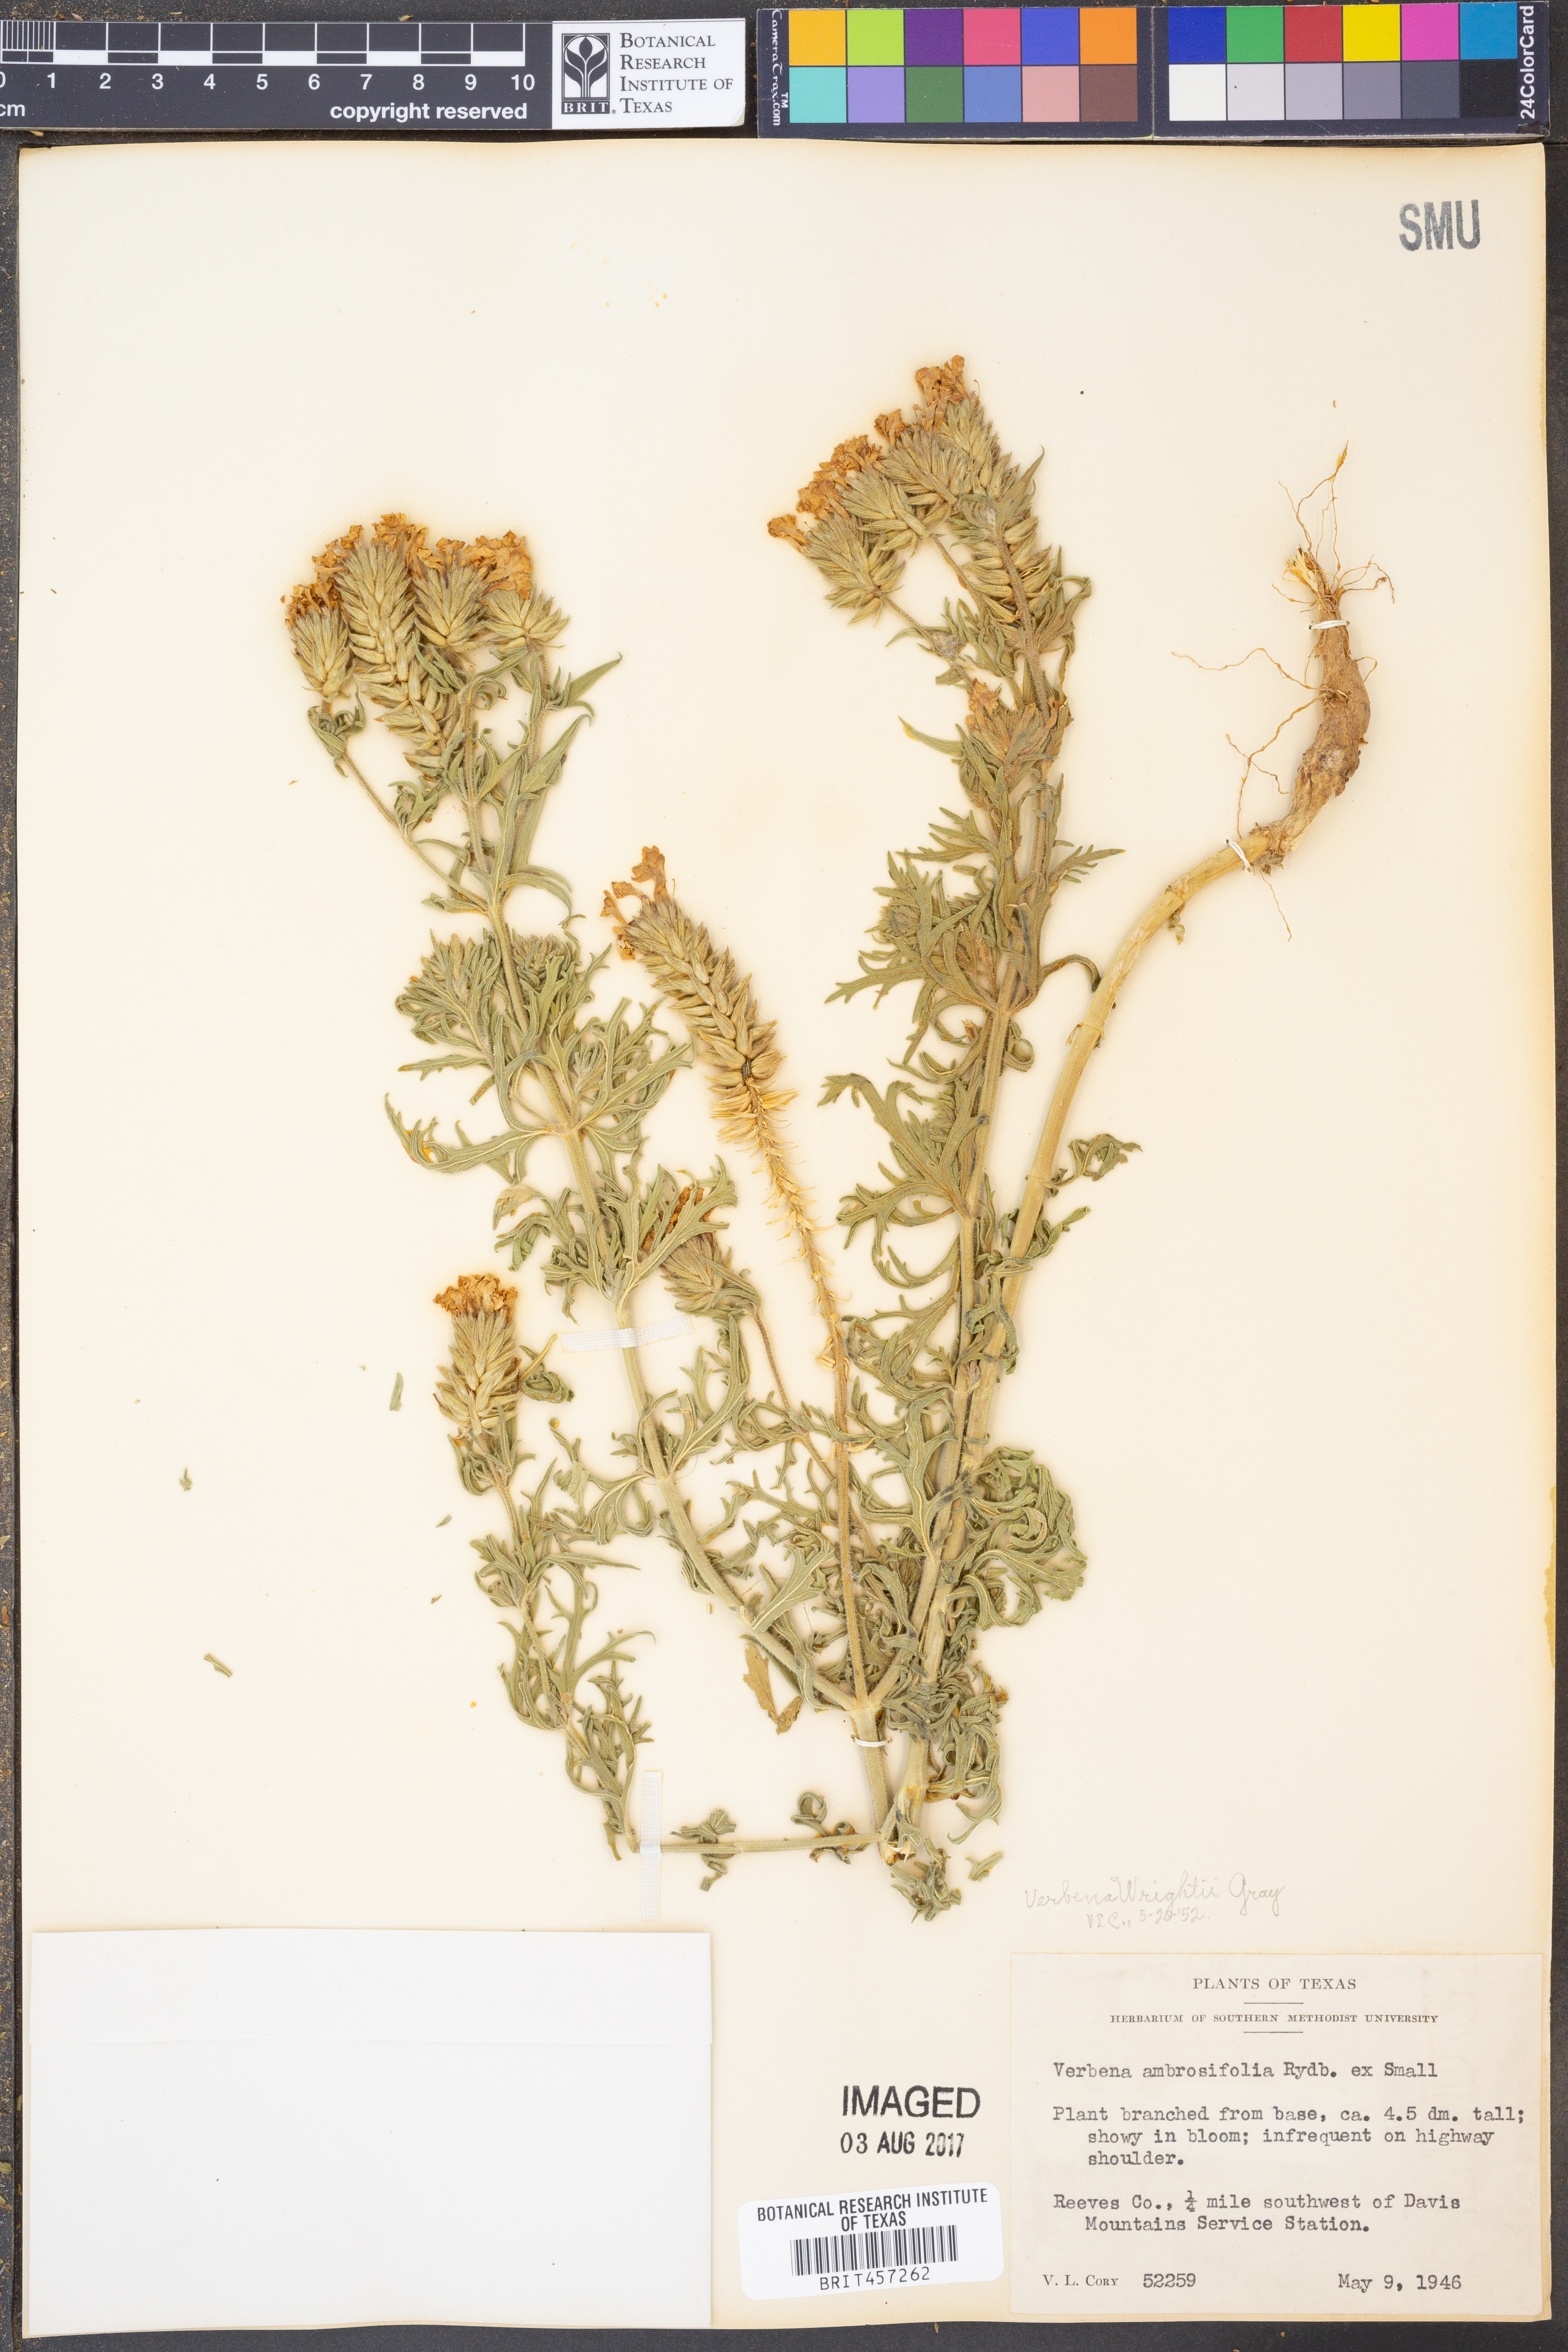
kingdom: Plantae
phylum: Tracheophyta
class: Magnoliopsida
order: Lamiales
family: Verbenaceae
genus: Verbena
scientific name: Verbena bipinnatifida
